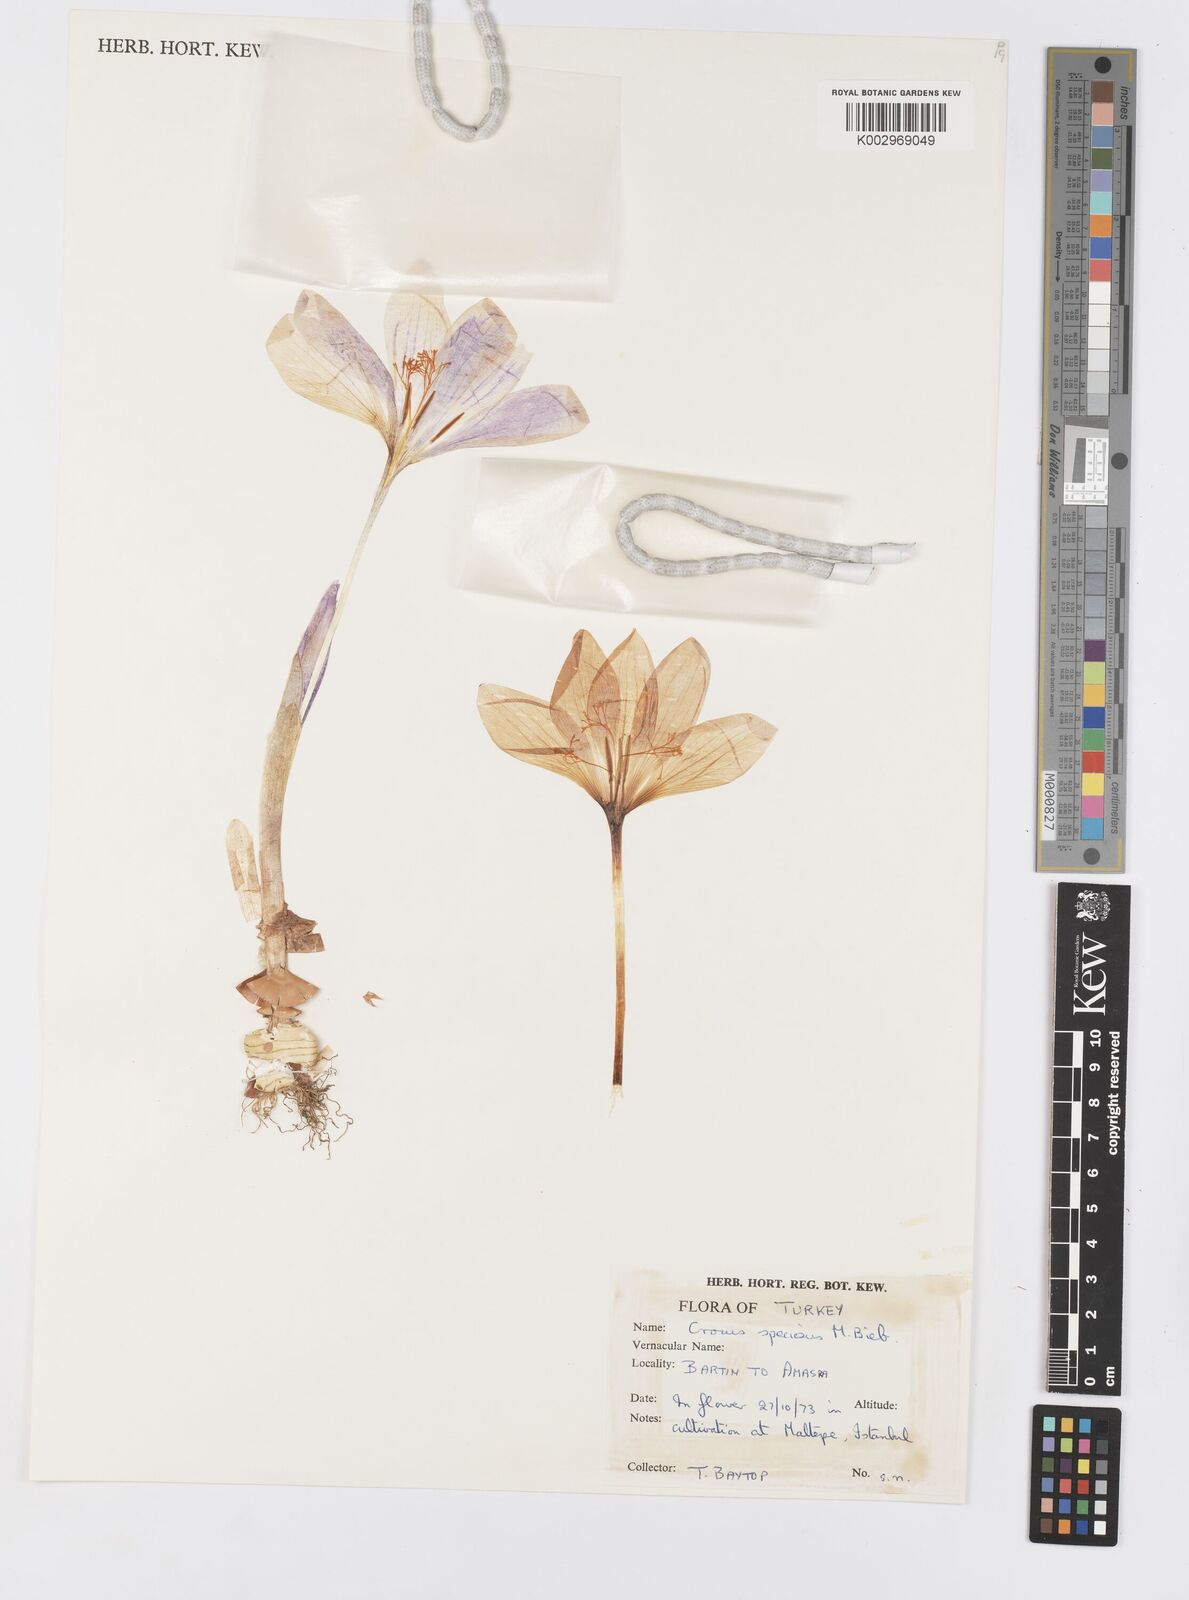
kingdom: Plantae
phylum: Tracheophyta
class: Liliopsida
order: Asparagales
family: Iridaceae
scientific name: Iridaceae
